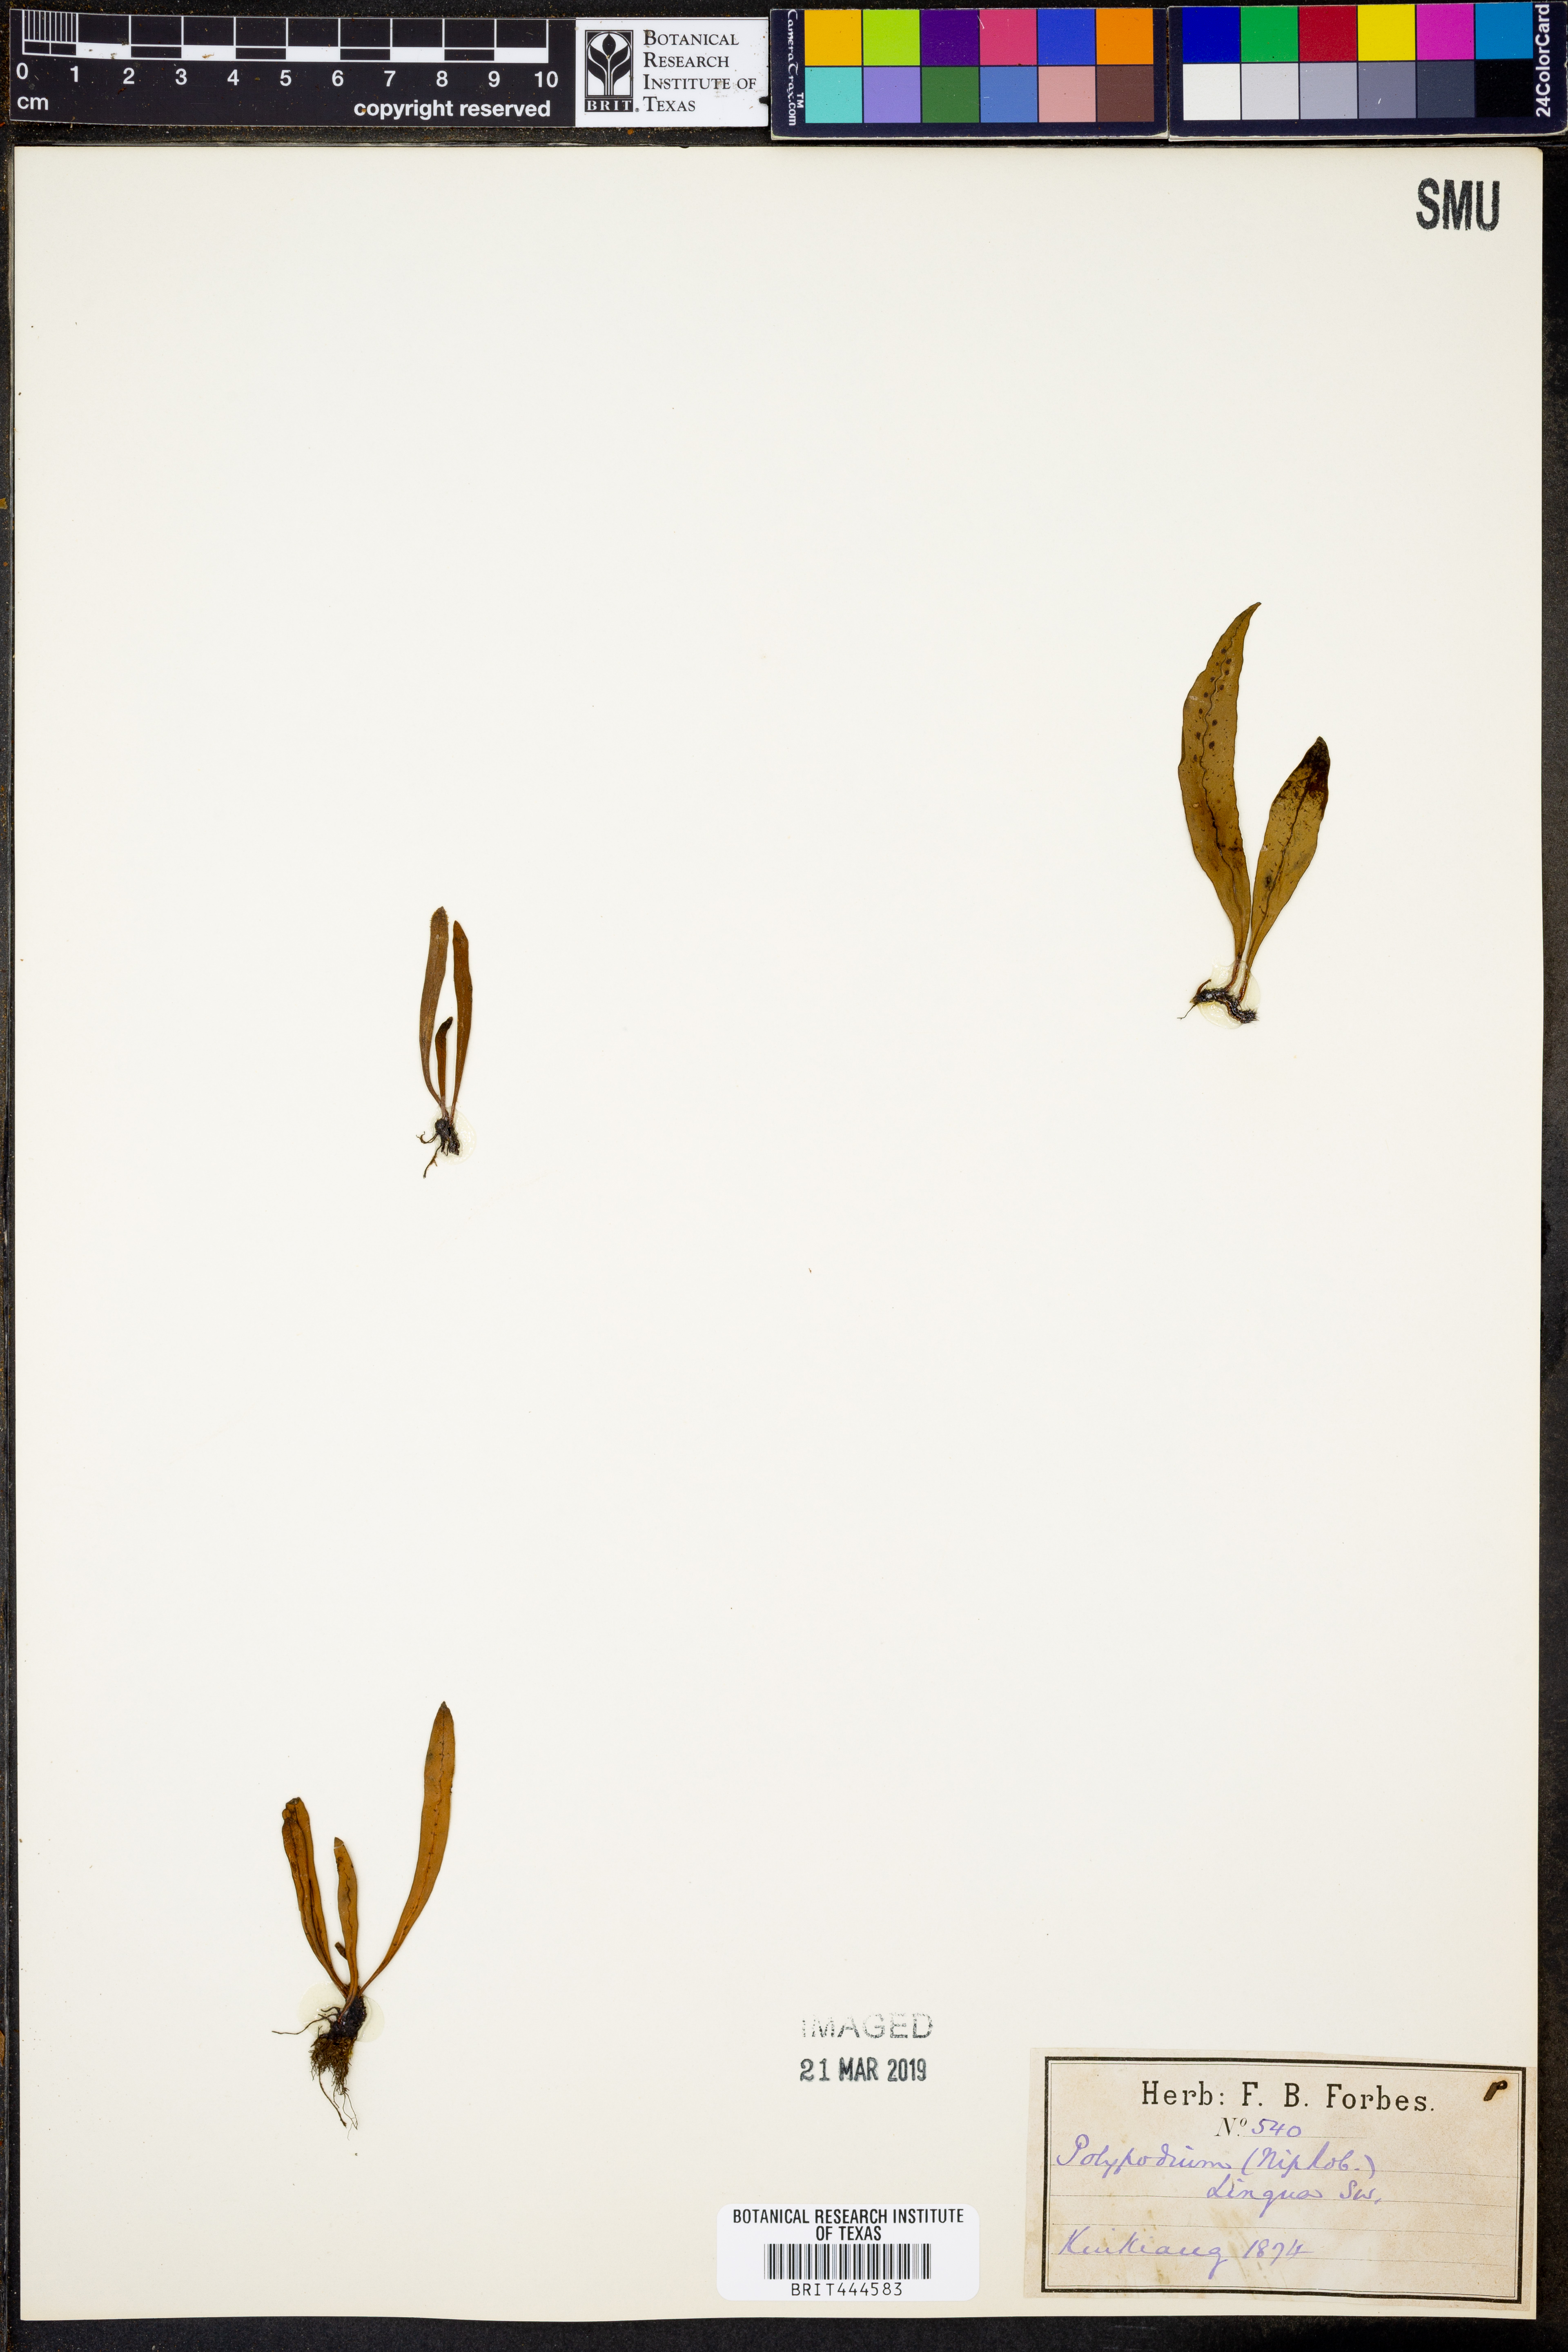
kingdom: Plantae
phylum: Tracheophyta
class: Polypodiopsida
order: Polypodiales
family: Polypodiaceae
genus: Polypodium
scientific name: Polypodium
